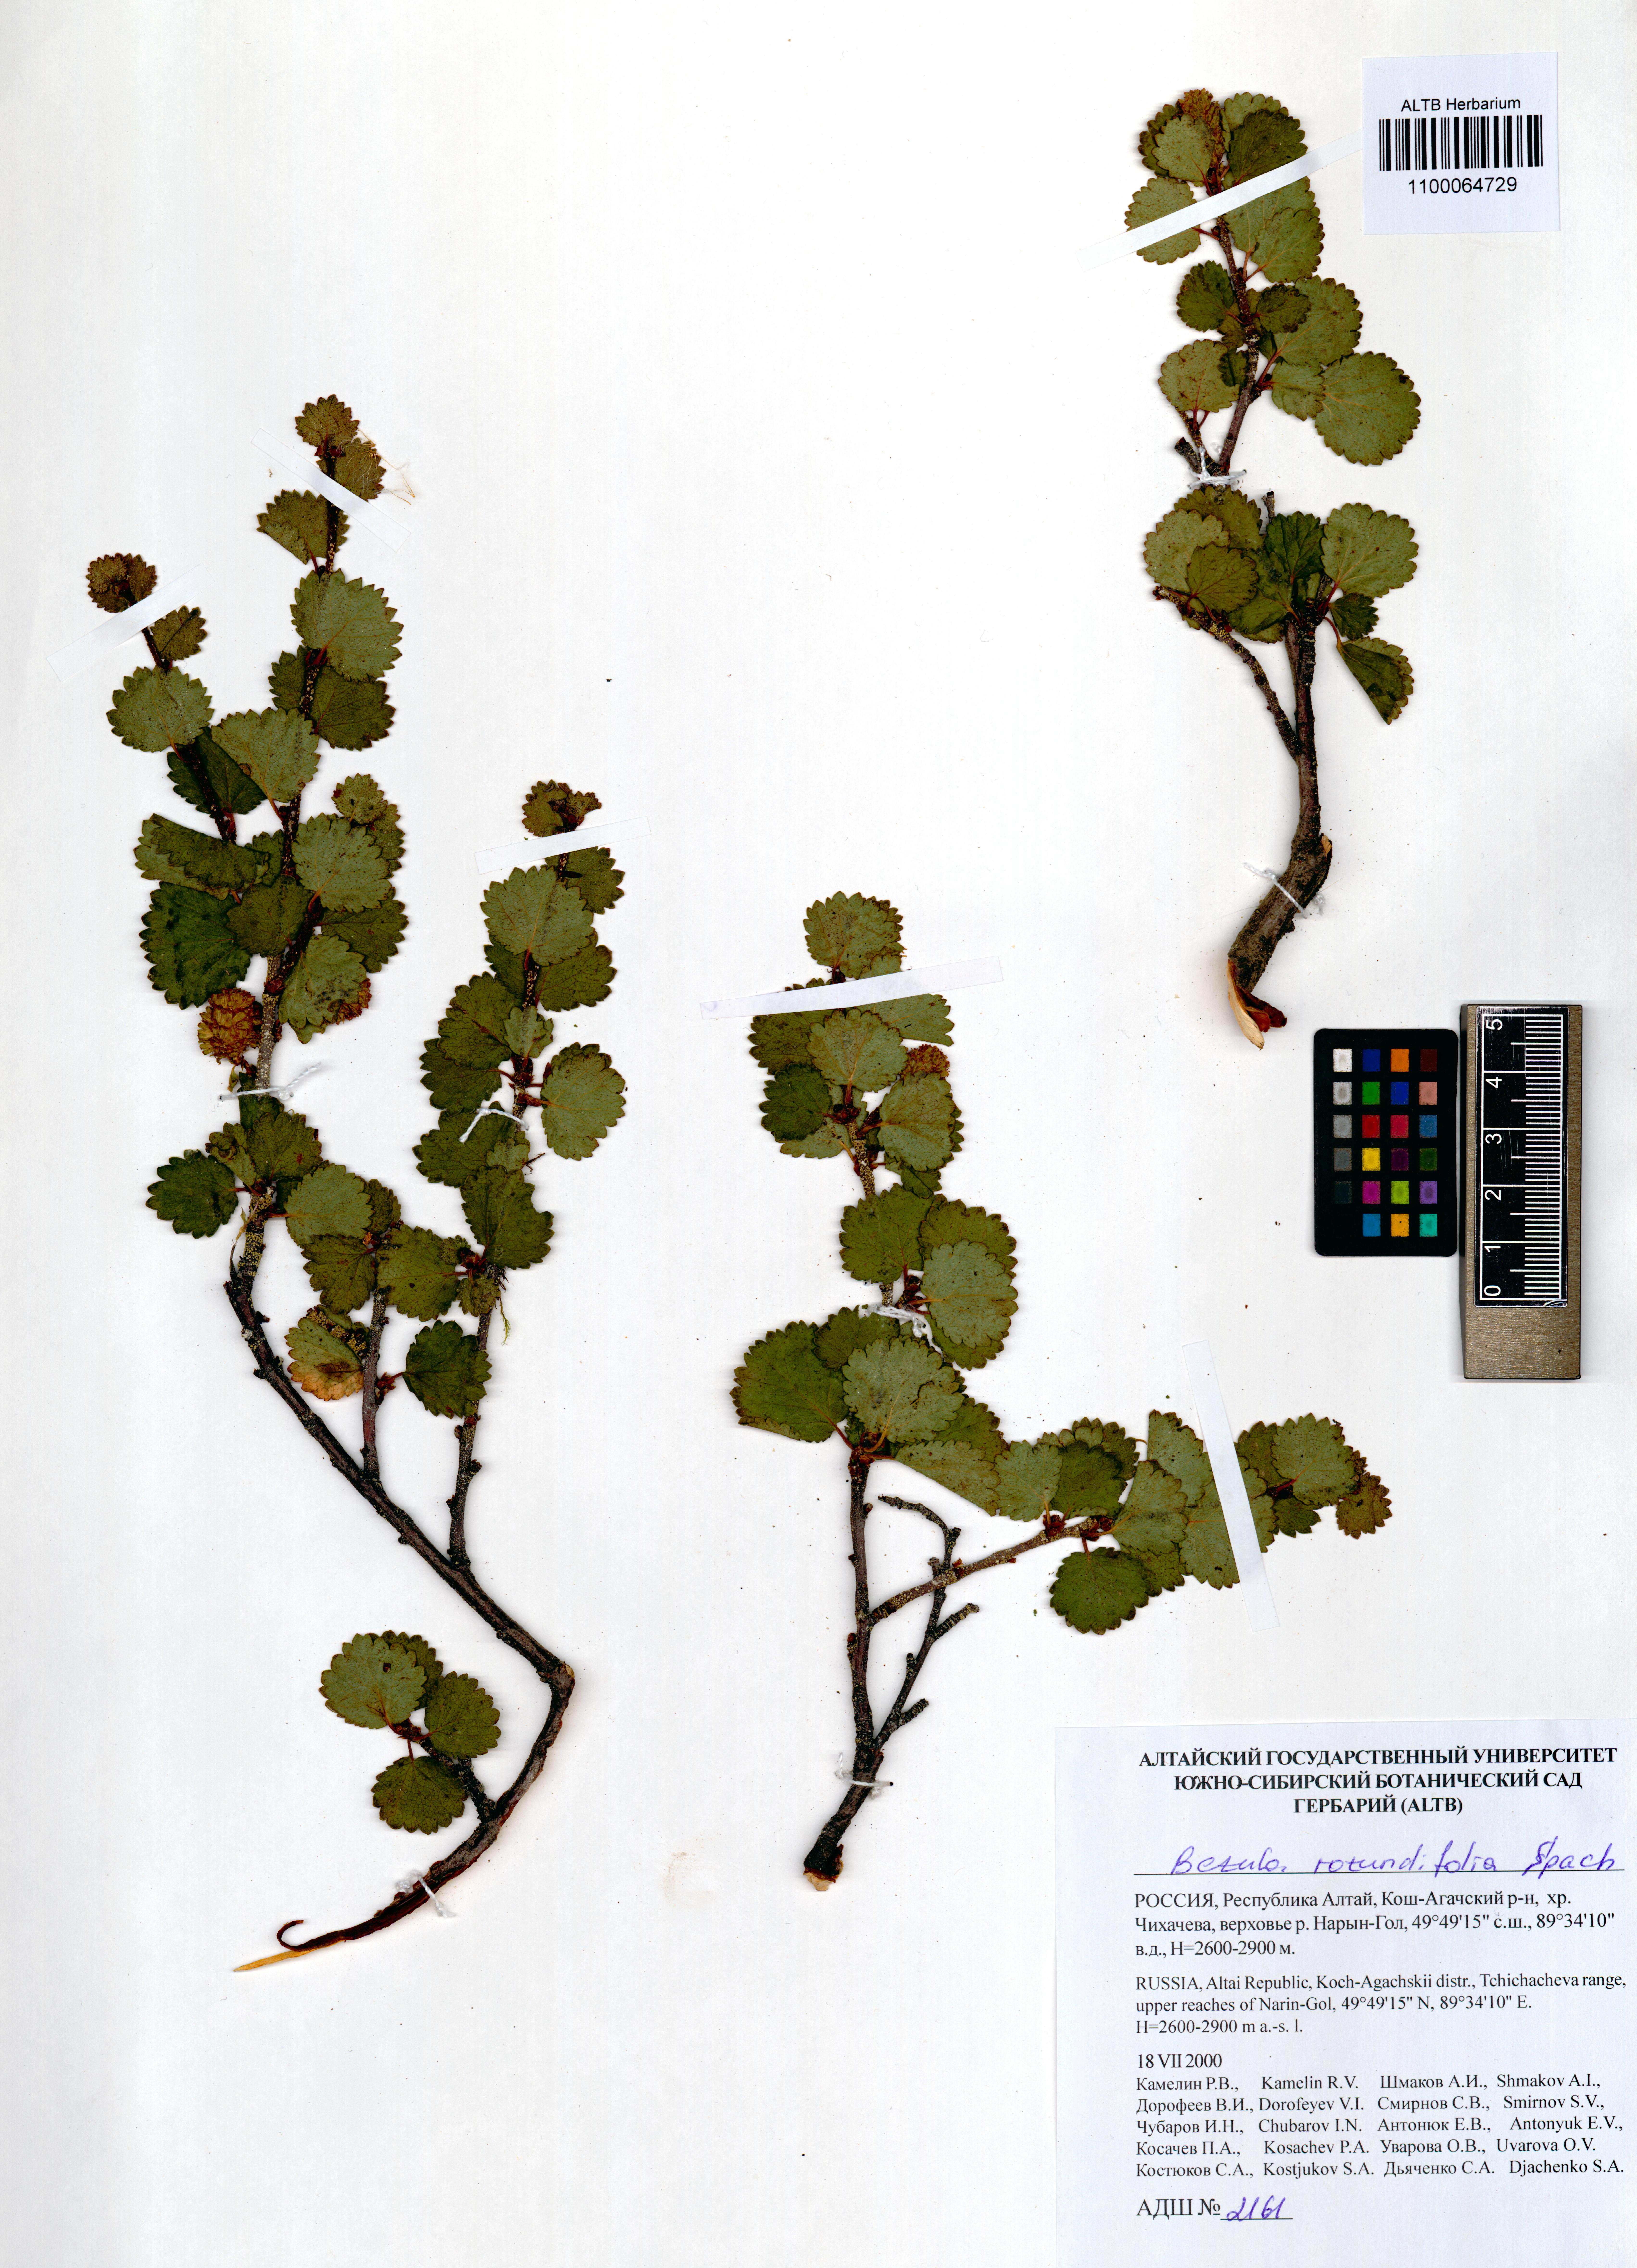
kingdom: Plantae
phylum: Tracheophyta
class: Magnoliopsida
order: Fagales
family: Betulaceae
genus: Betula
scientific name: Betula glandulosa
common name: Dwarf birch
